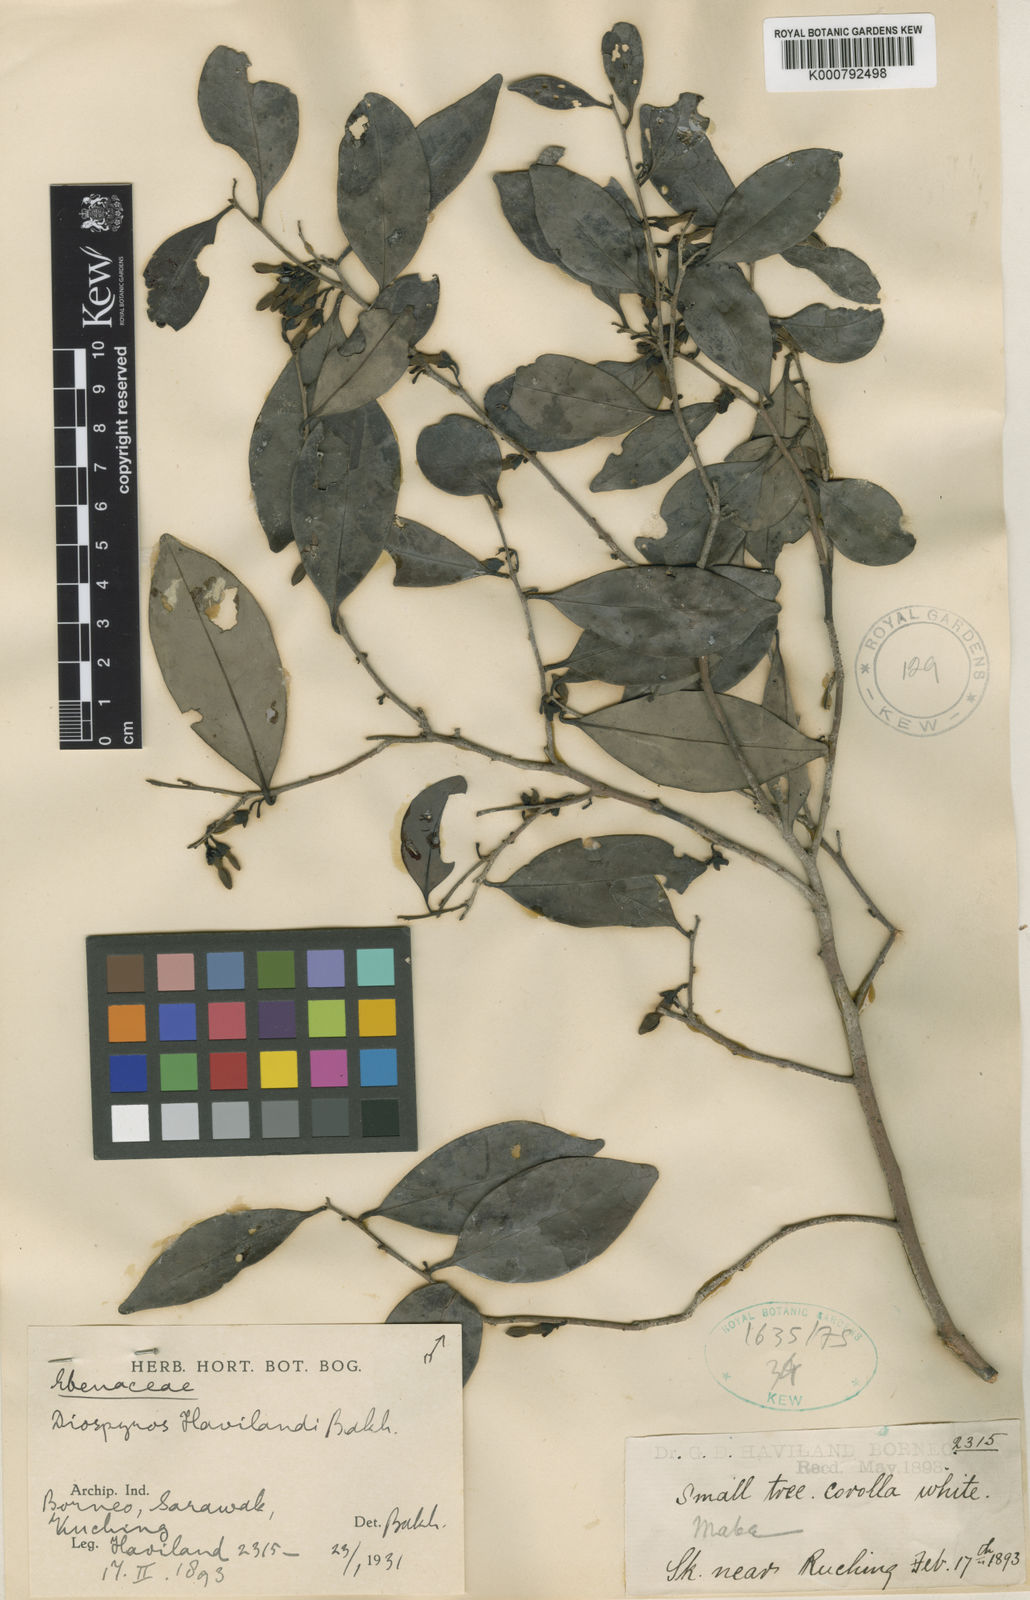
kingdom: Plantae
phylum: Tracheophyta
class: Magnoliopsida
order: Ericales
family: Ebenaceae
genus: Diospyros
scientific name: Diospyros havilandii
